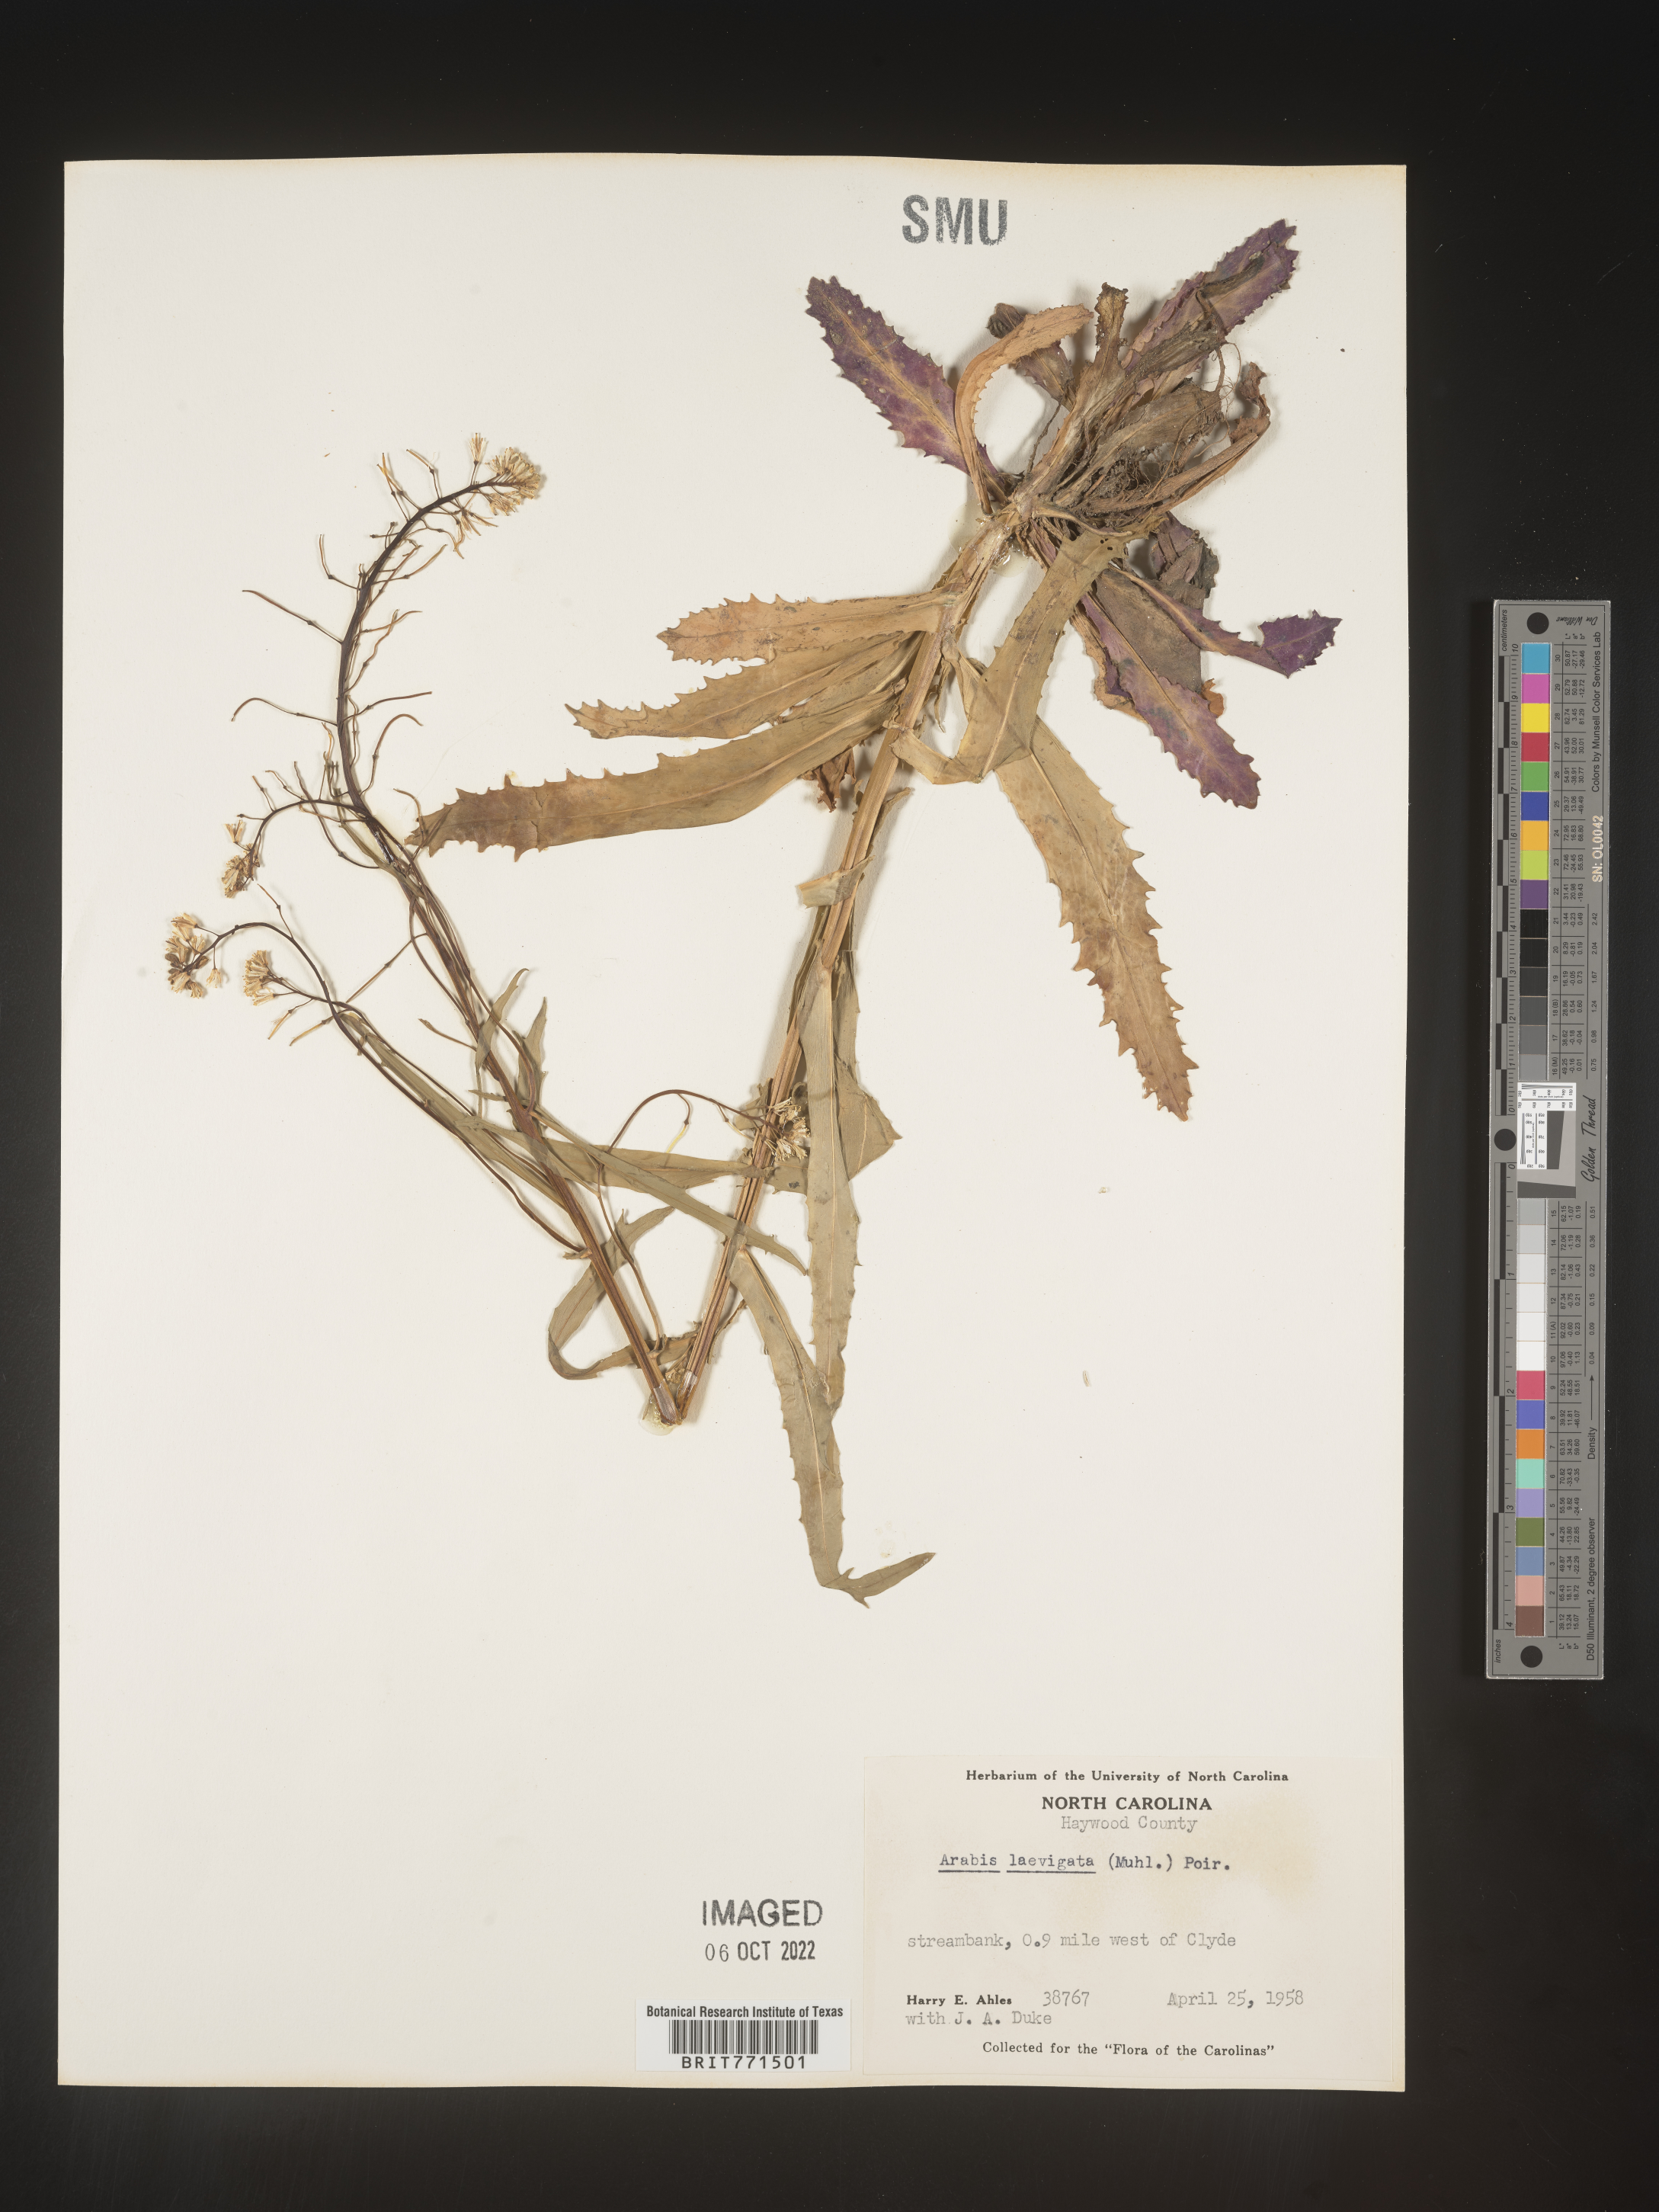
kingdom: Plantae
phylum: Tracheophyta
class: Magnoliopsida
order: Brassicales
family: Brassicaceae
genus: Arabis
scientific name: Arabis laevigata
